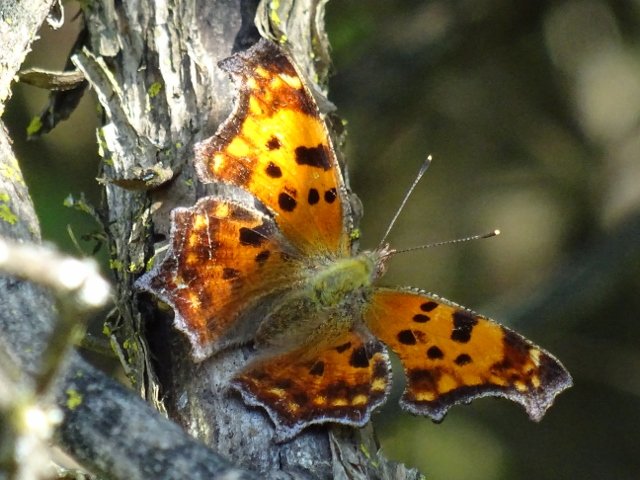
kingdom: Animalia
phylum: Arthropoda
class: Insecta
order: Lepidoptera
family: Nymphalidae
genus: Polygonia
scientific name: Polygonia comma
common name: Eastern Comma
